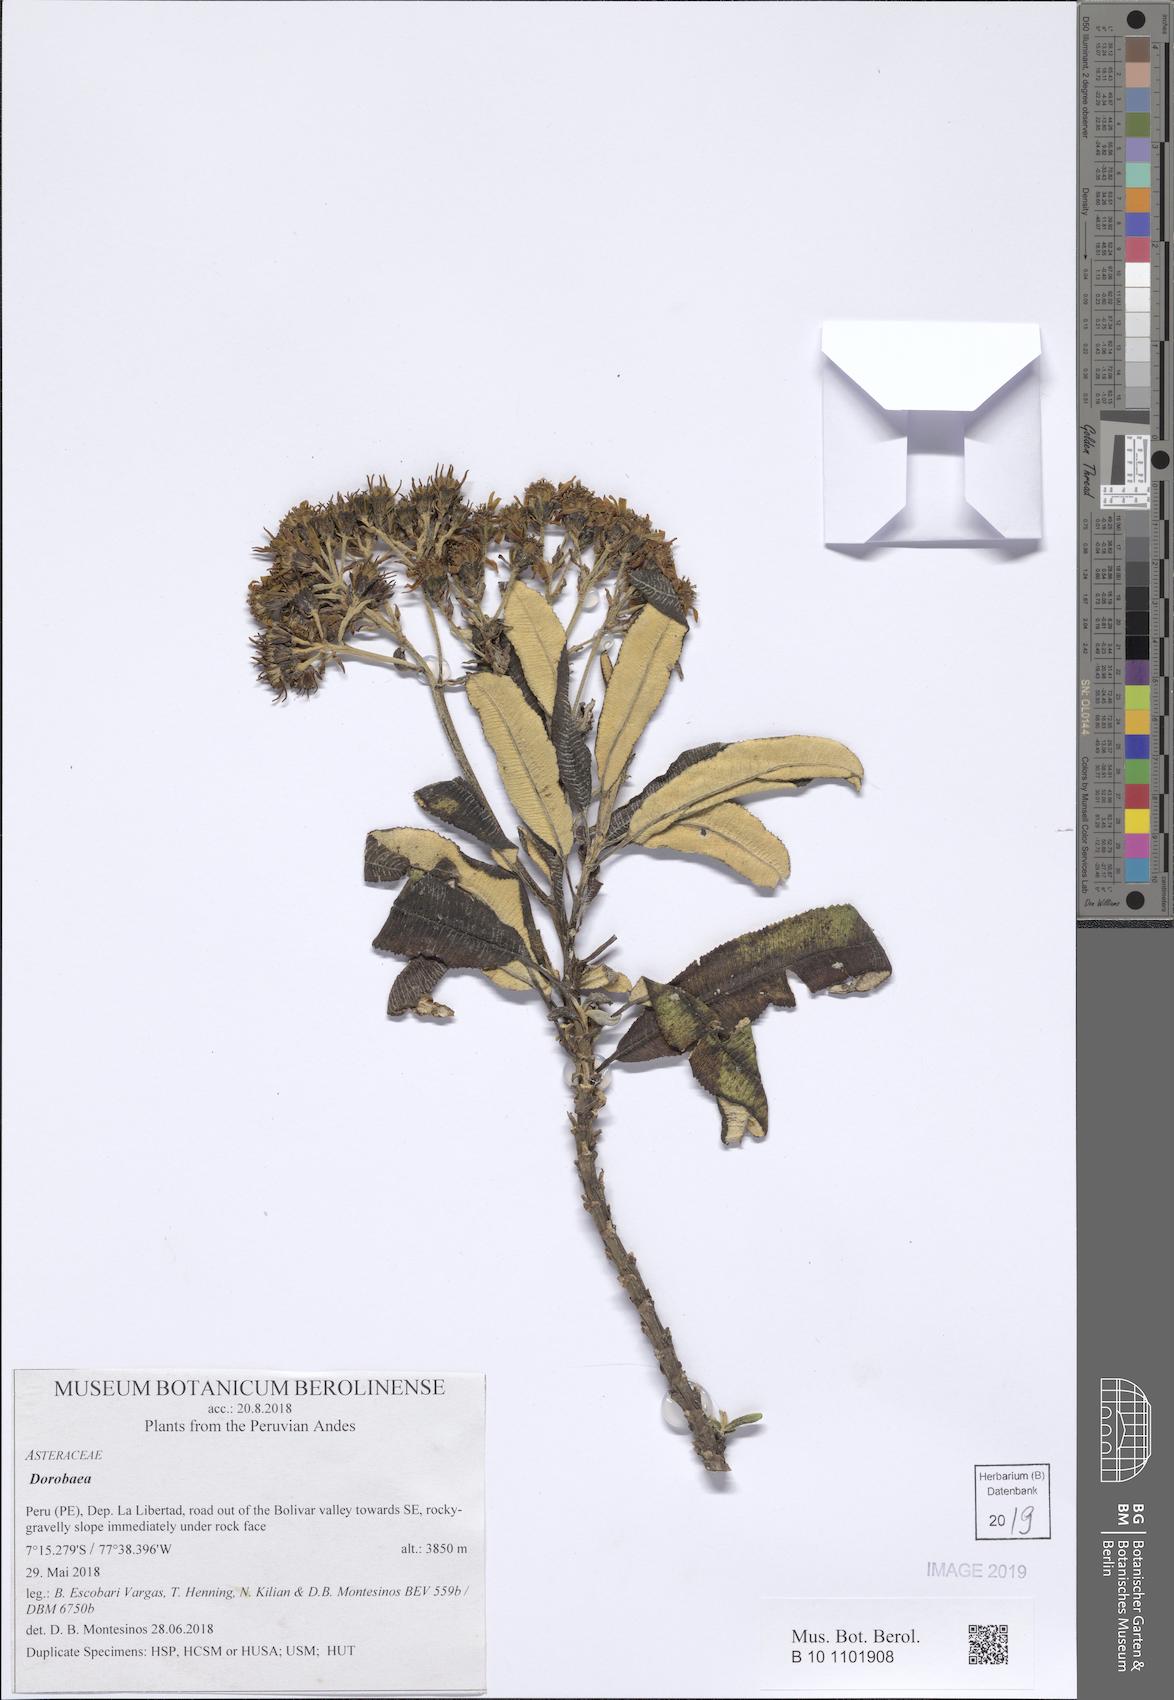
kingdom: Plantae
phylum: Tracheophyta
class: Magnoliopsida
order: Asterales
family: Asteraceae
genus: Dorobaea
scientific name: Dorobaea
